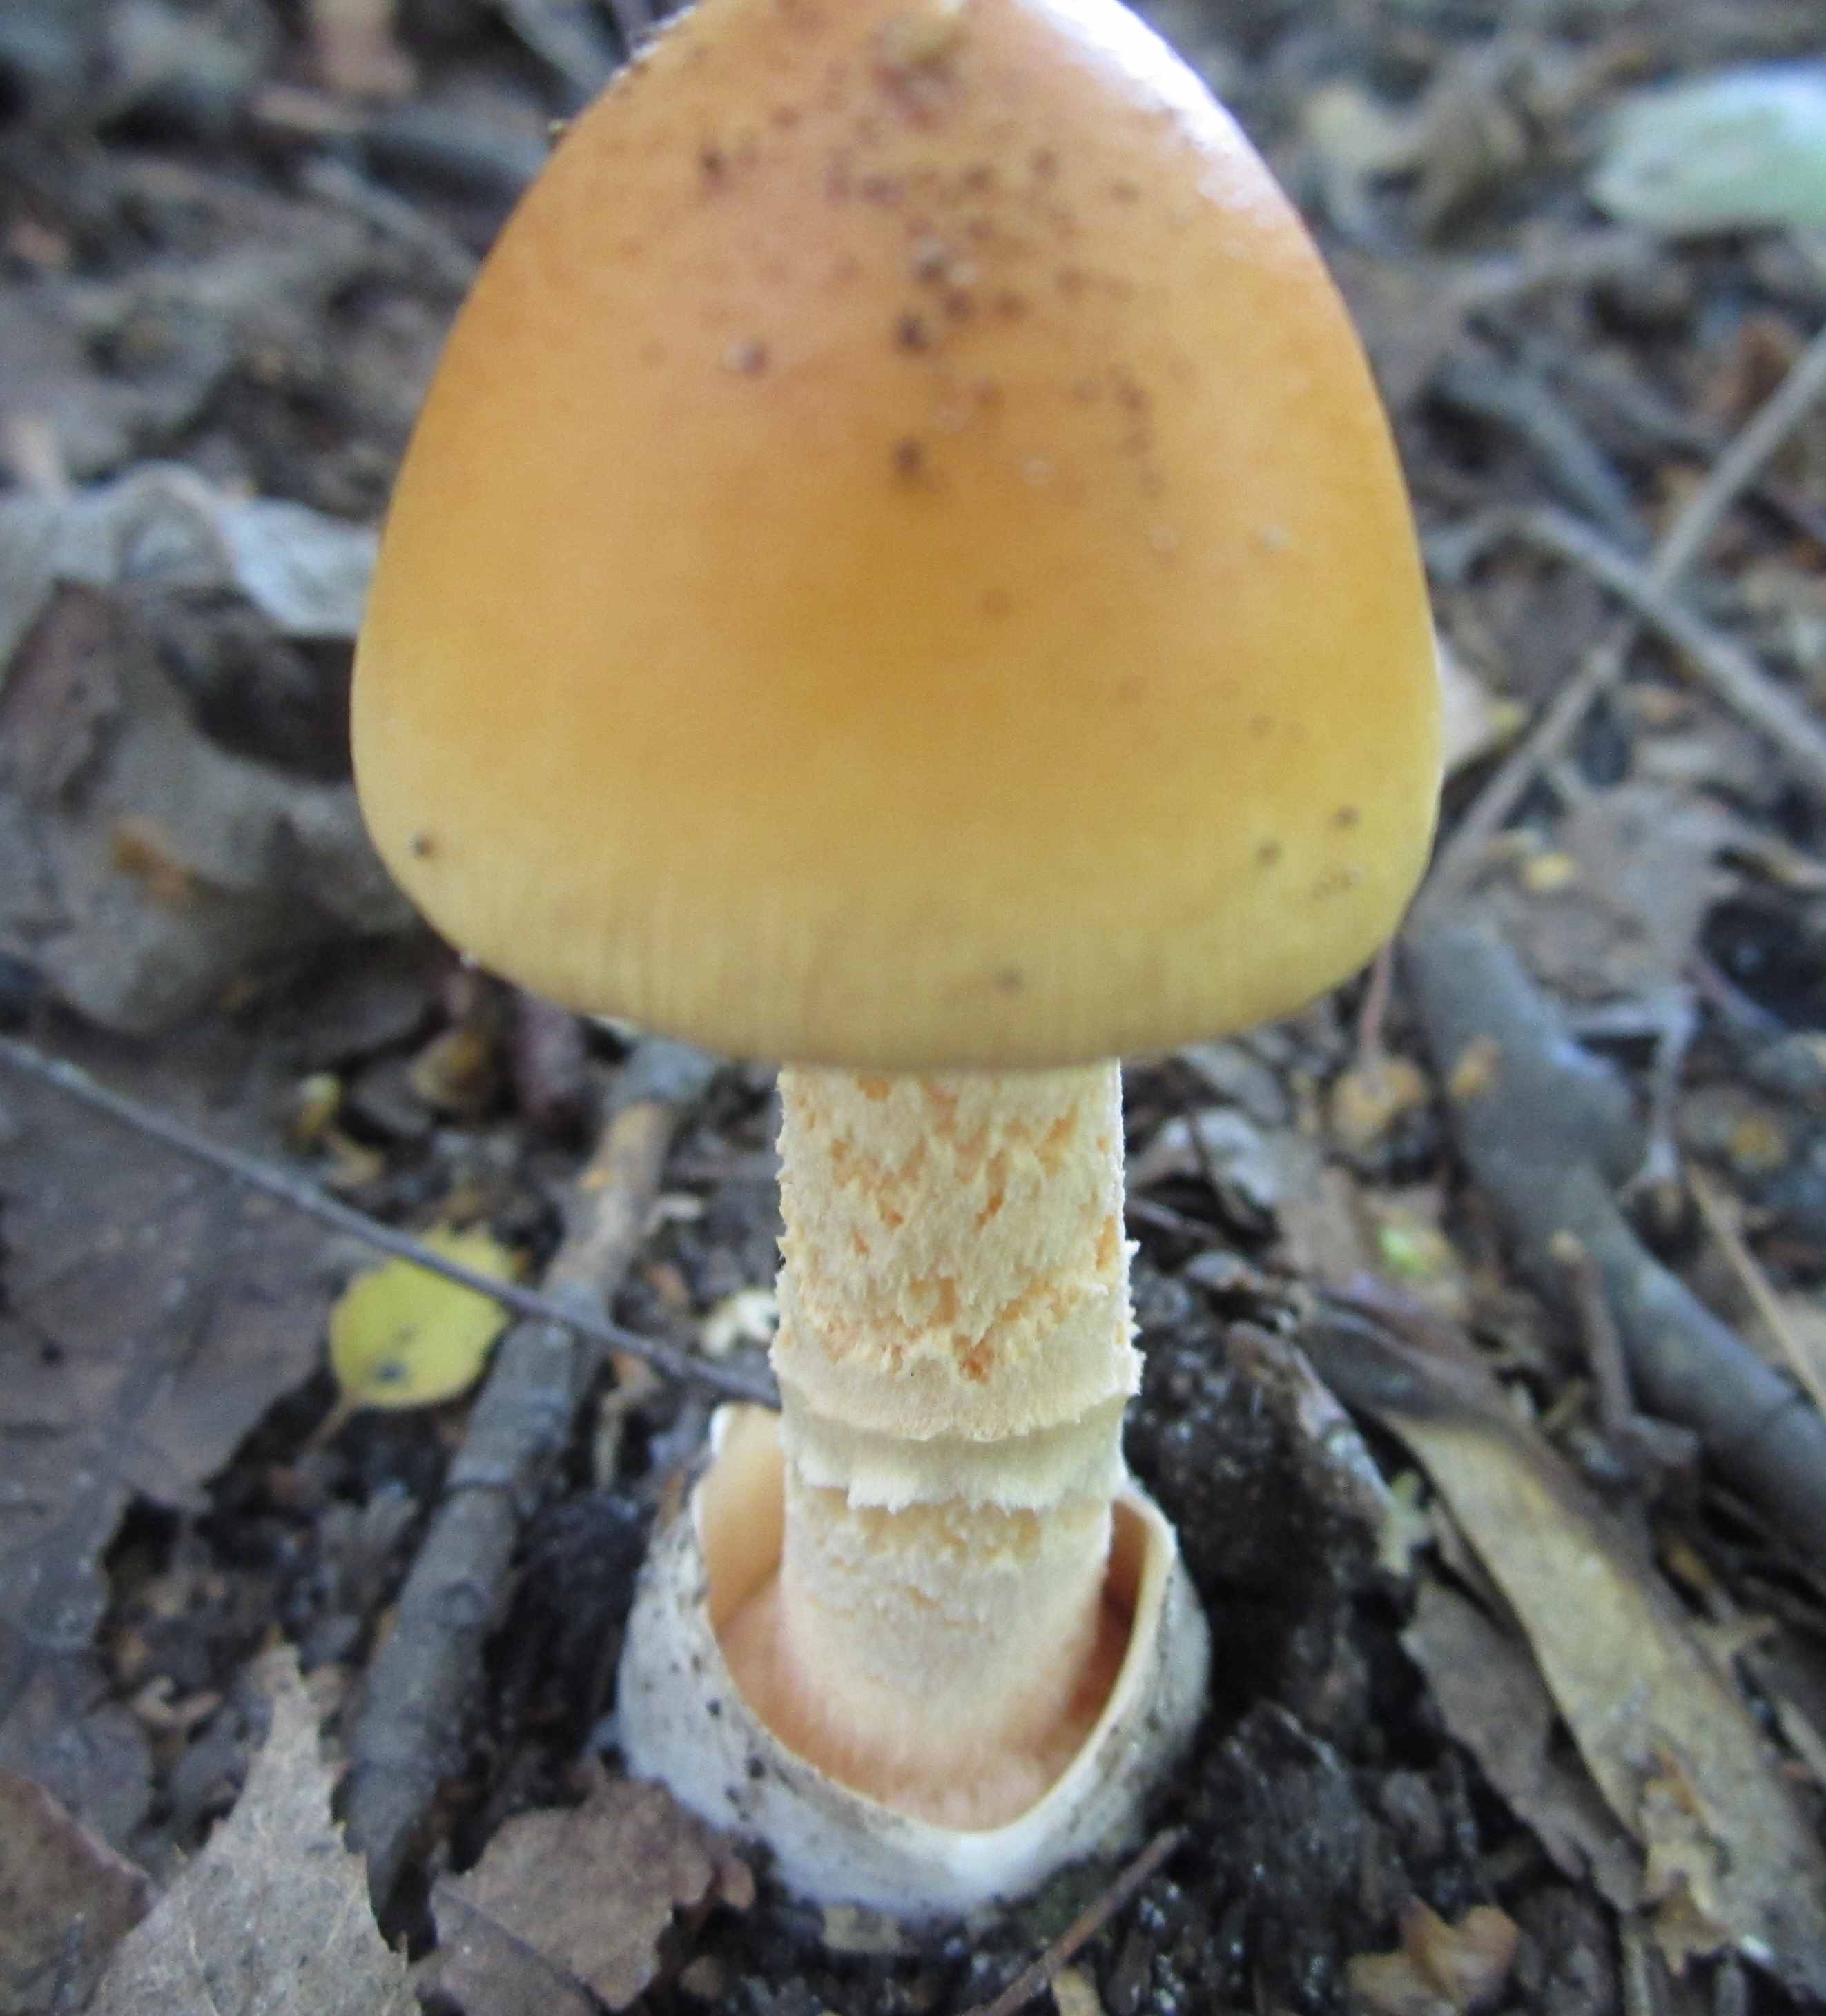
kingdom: Fungi
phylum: Basidiomycota
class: Agaricomycetes
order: Agaricales
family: Amanitaceae
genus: Amanita
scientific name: Amanita crocea
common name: gylden kam-fluesvamp
